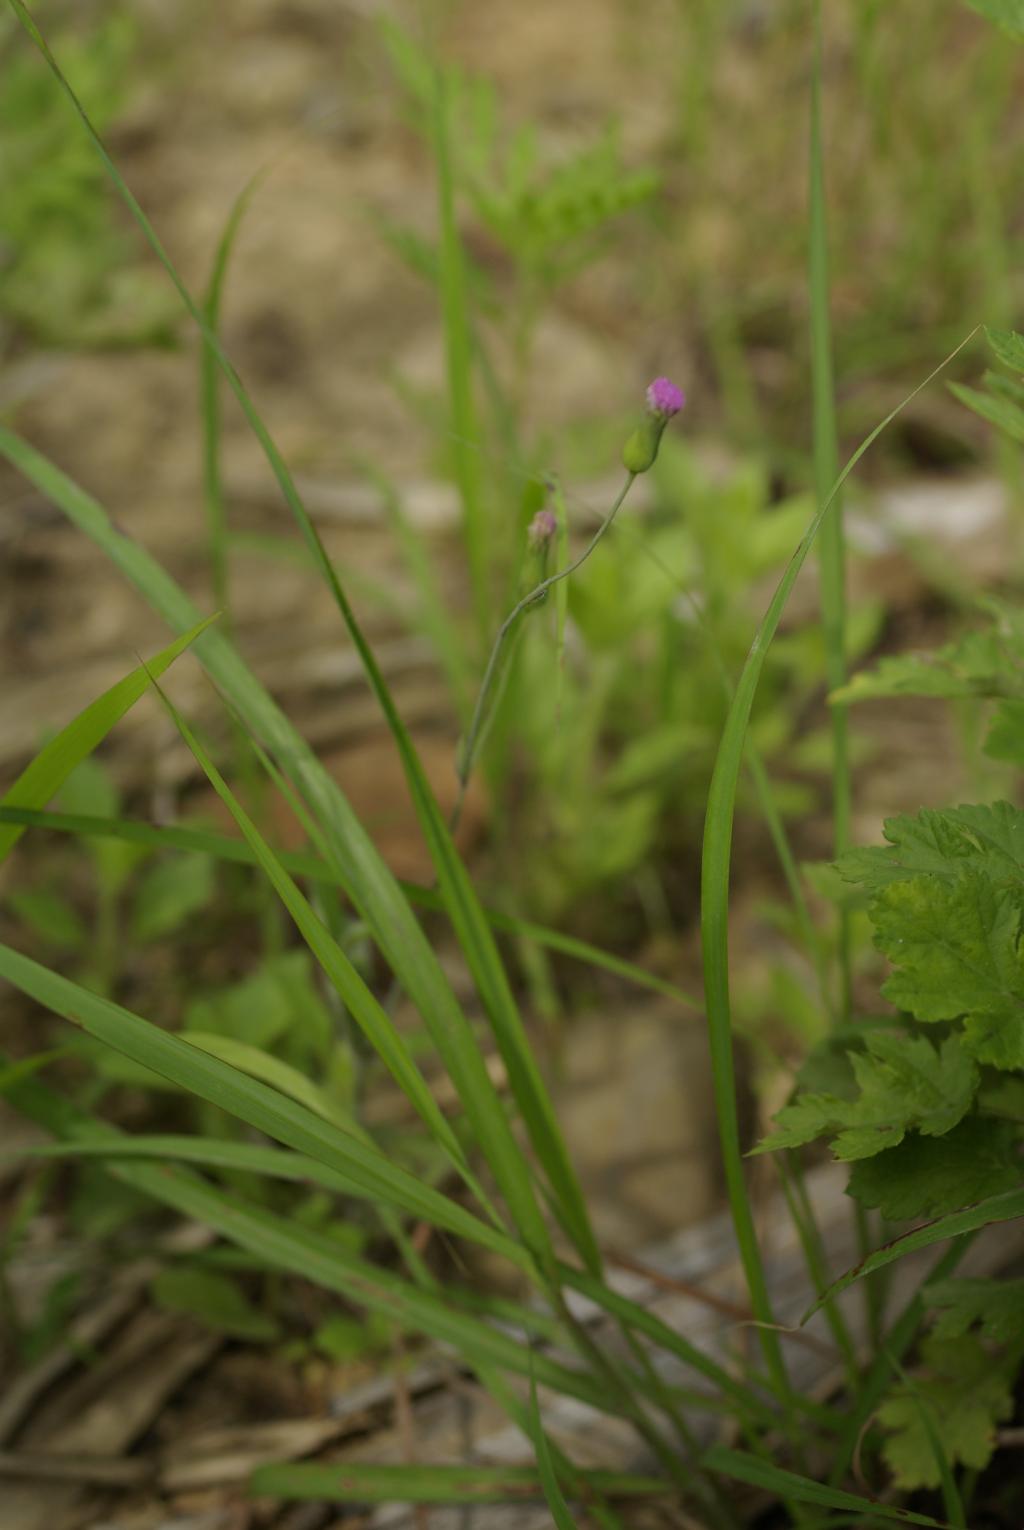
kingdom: Plantae
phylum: Tracheophyta
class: Magnoliopsida
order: Asterales
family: Asteraceae
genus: Emilia
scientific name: Emilia sonchifolia
